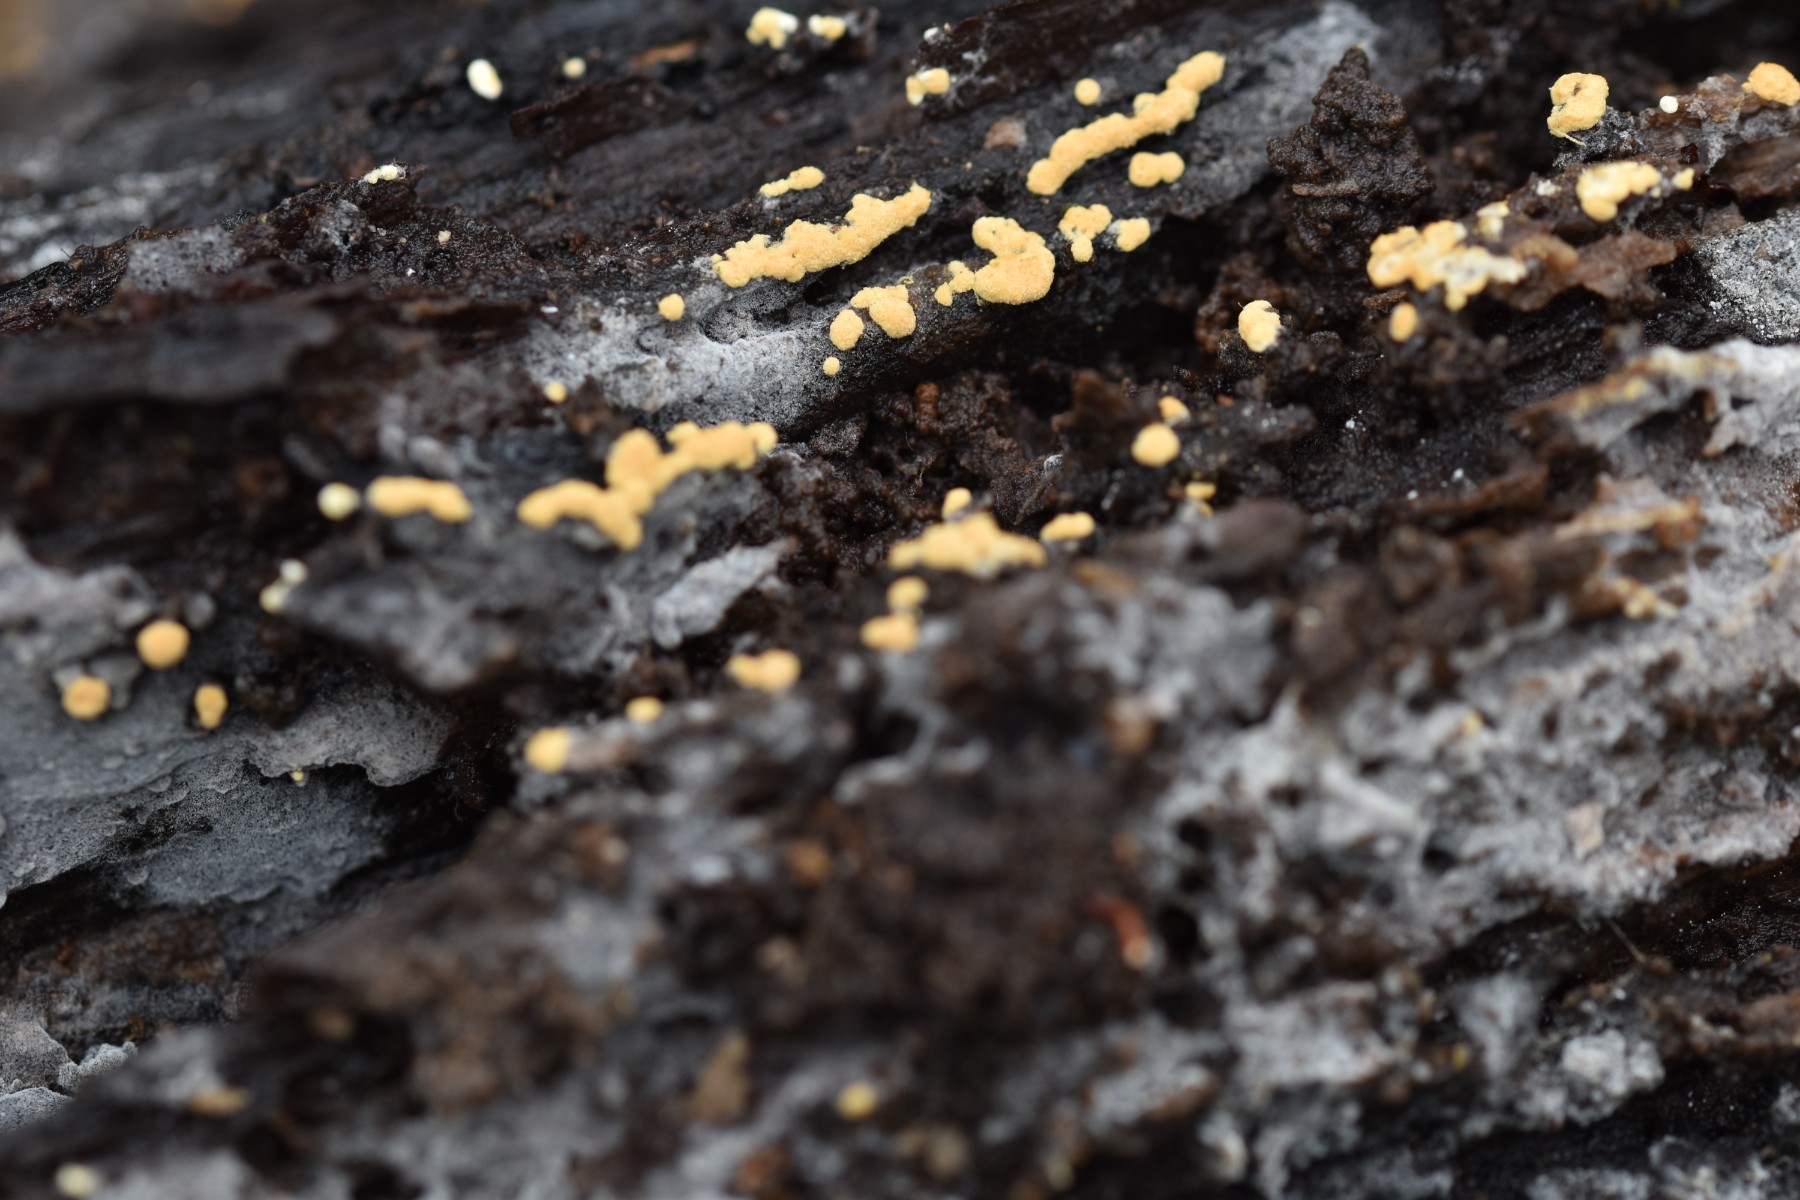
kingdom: Fungi
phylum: Basidiomycota
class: Agaricomycetes
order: Cantharellales
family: Botryobasidiaceae
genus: Botryobasidium
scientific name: Botryobasidium aureum
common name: gylden spindhinde
